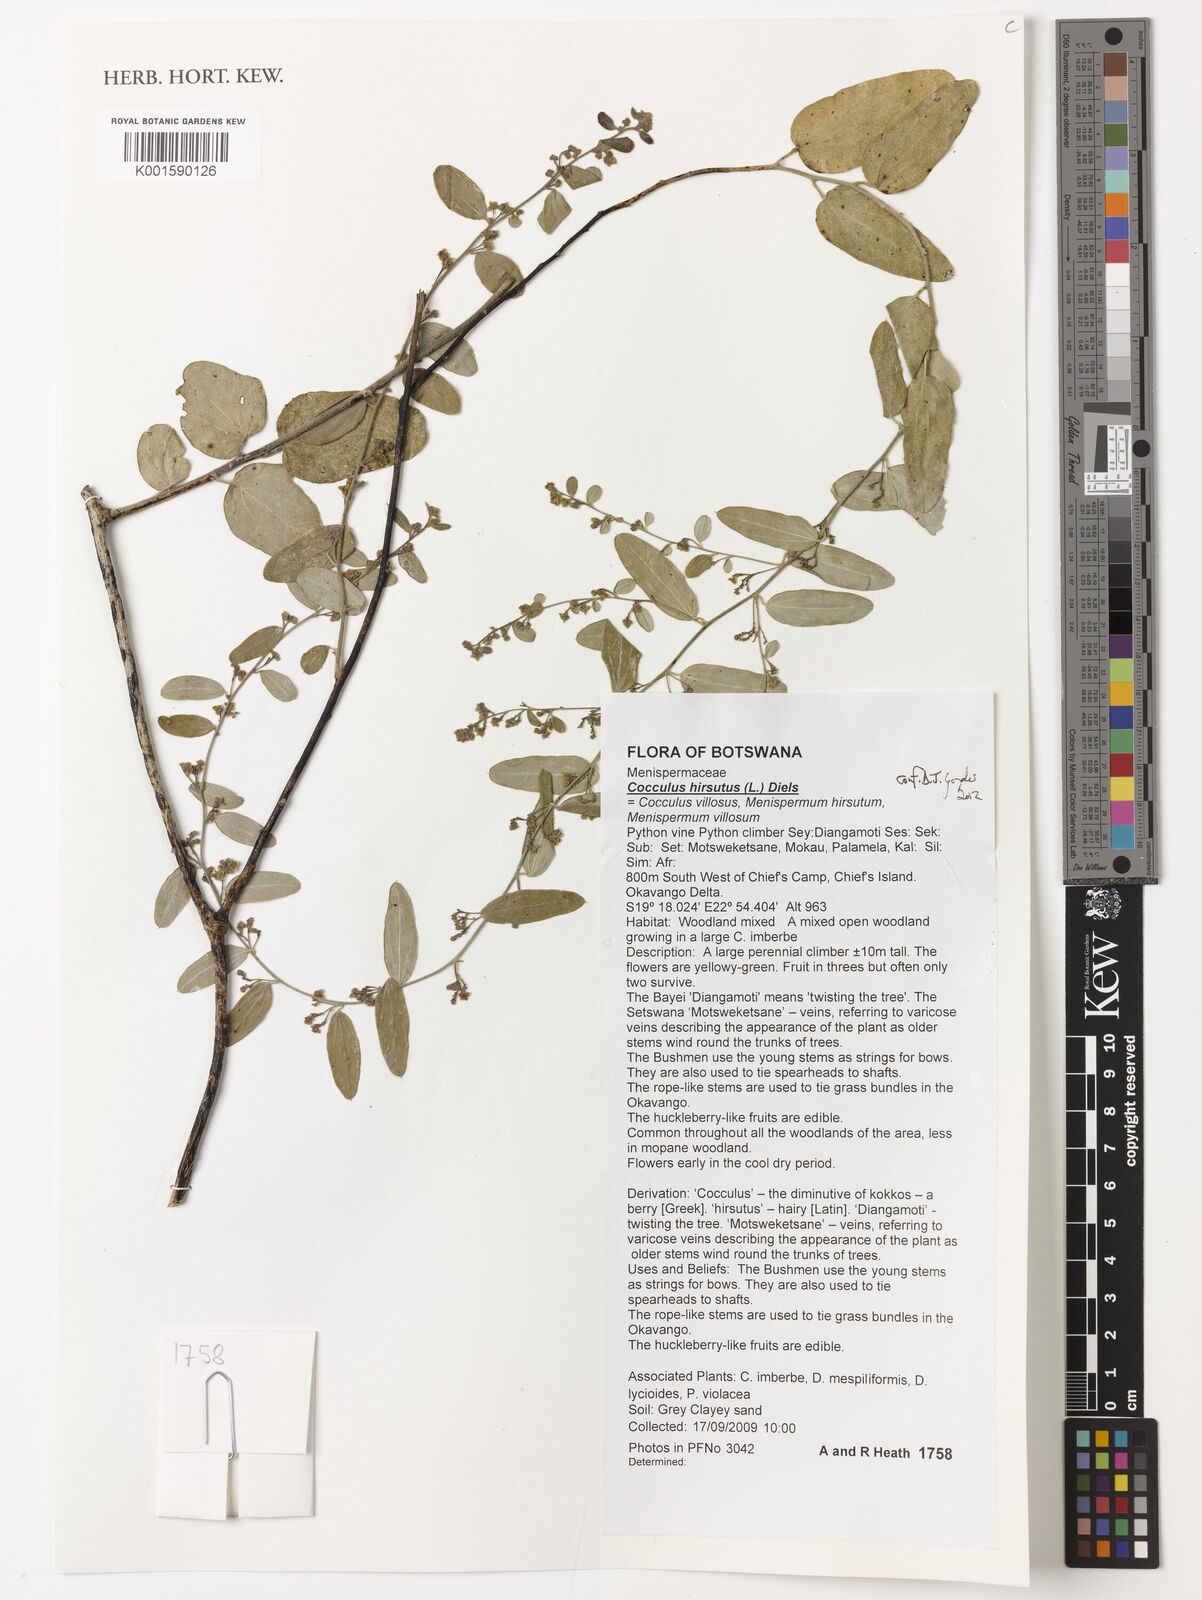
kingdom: Plantae
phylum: Tracheophyta
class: Magnoliopsida
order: Ranunculales
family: Menispermaceae
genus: Cocculus
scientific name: Cocculus hirsutus
